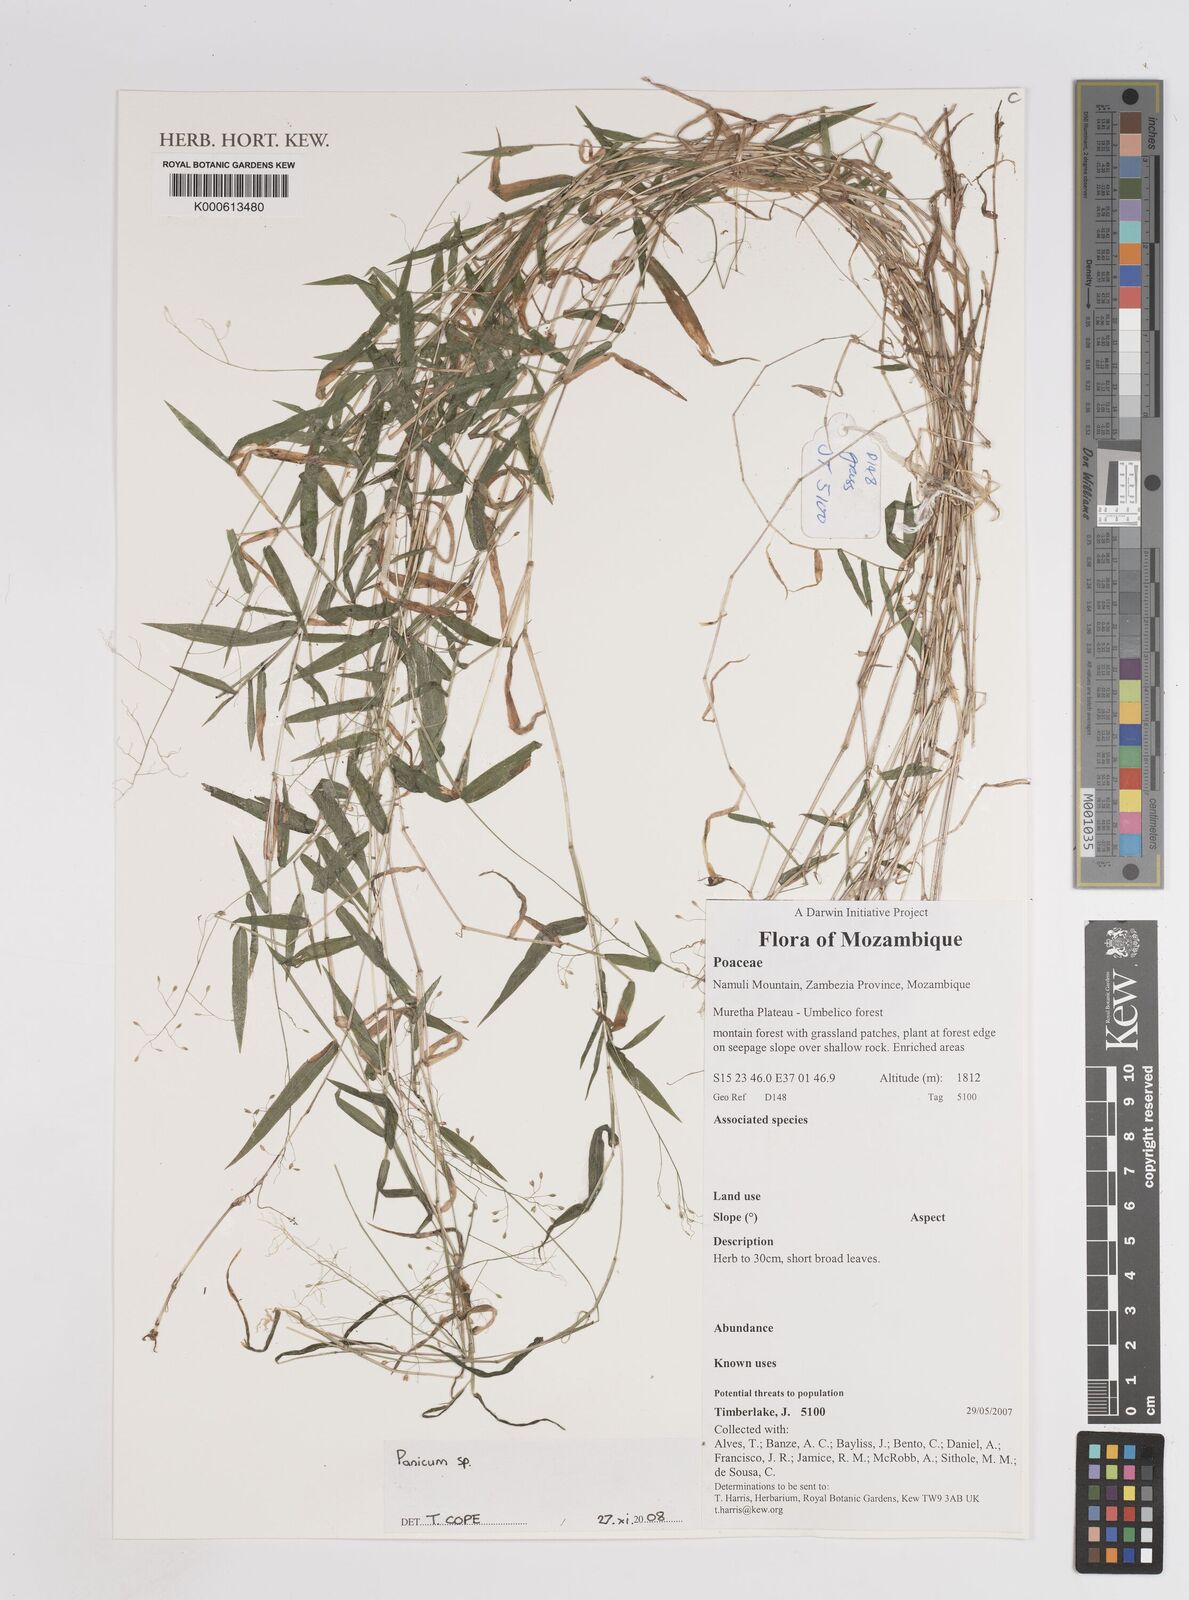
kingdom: Plantae
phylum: Tracheophyta
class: Liliopsida
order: Poales
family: Poaceae
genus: Panicum
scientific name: Panicum
